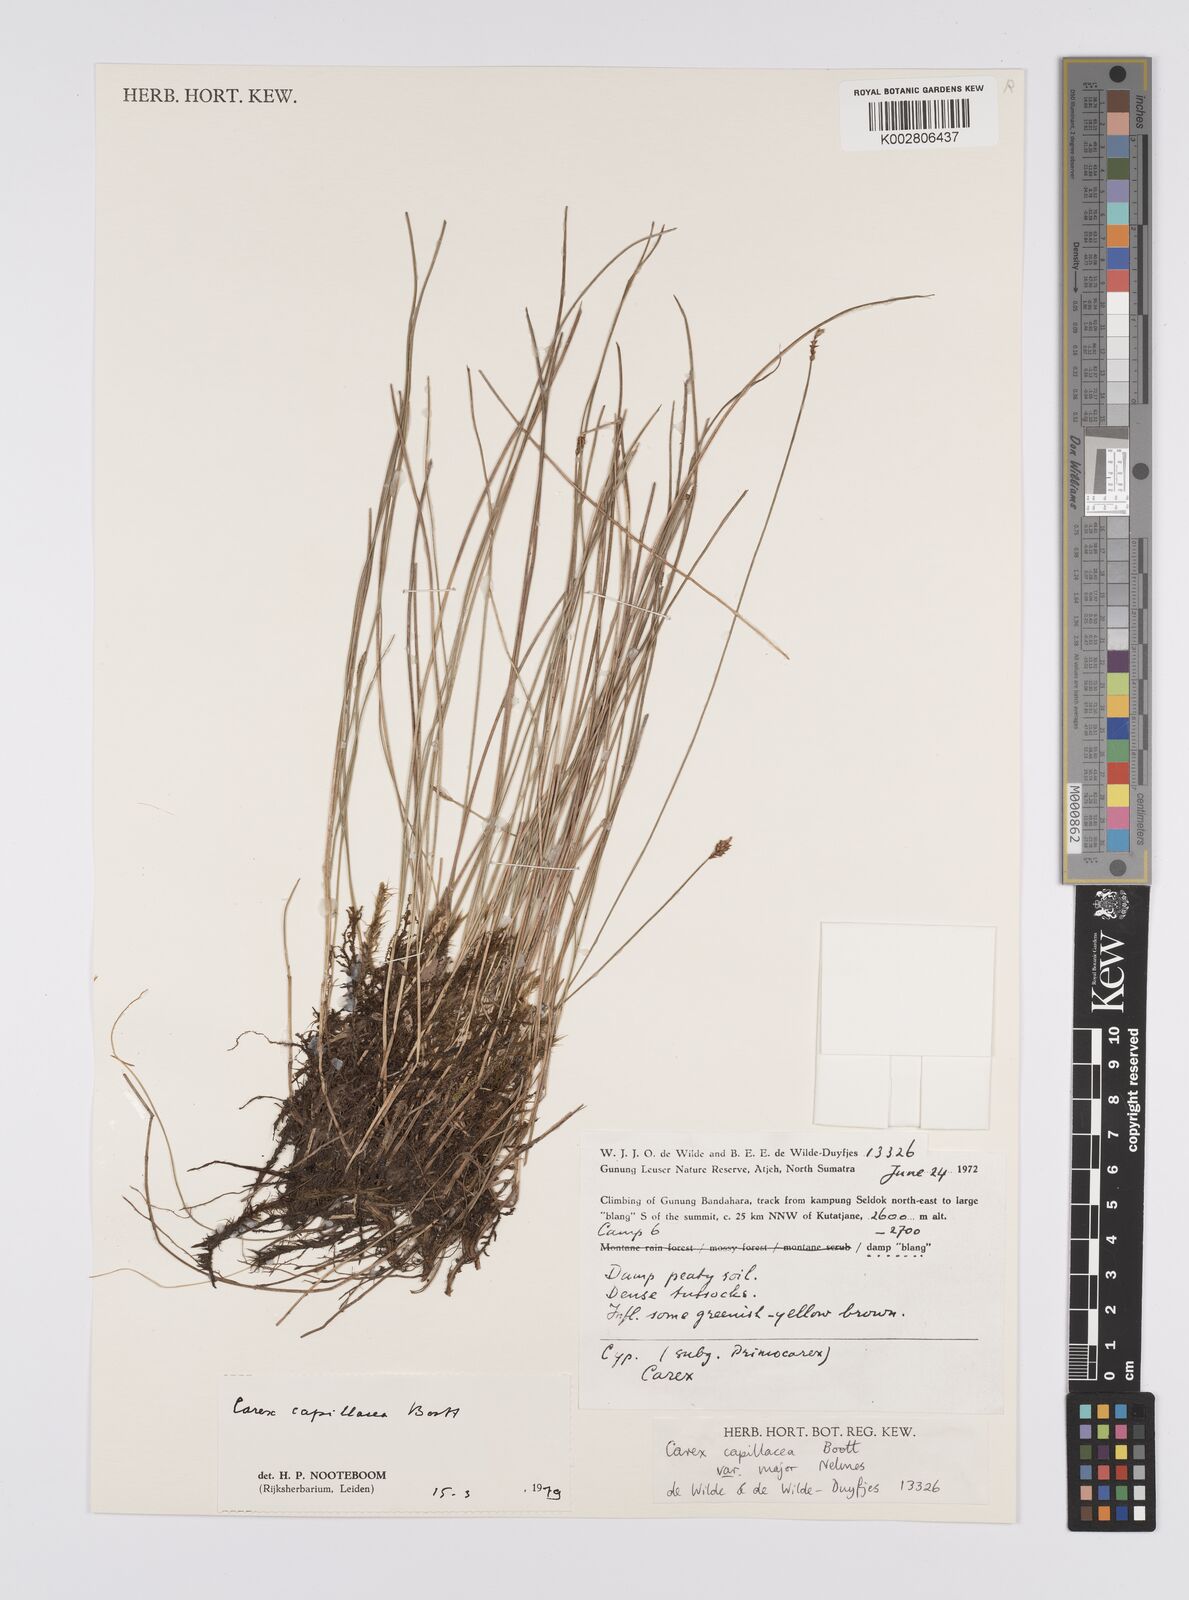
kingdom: Plantae
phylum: Tracheophyta
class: Liliopsida
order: Poales
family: Cyperaceae
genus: Carex
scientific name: Carex capillacea
